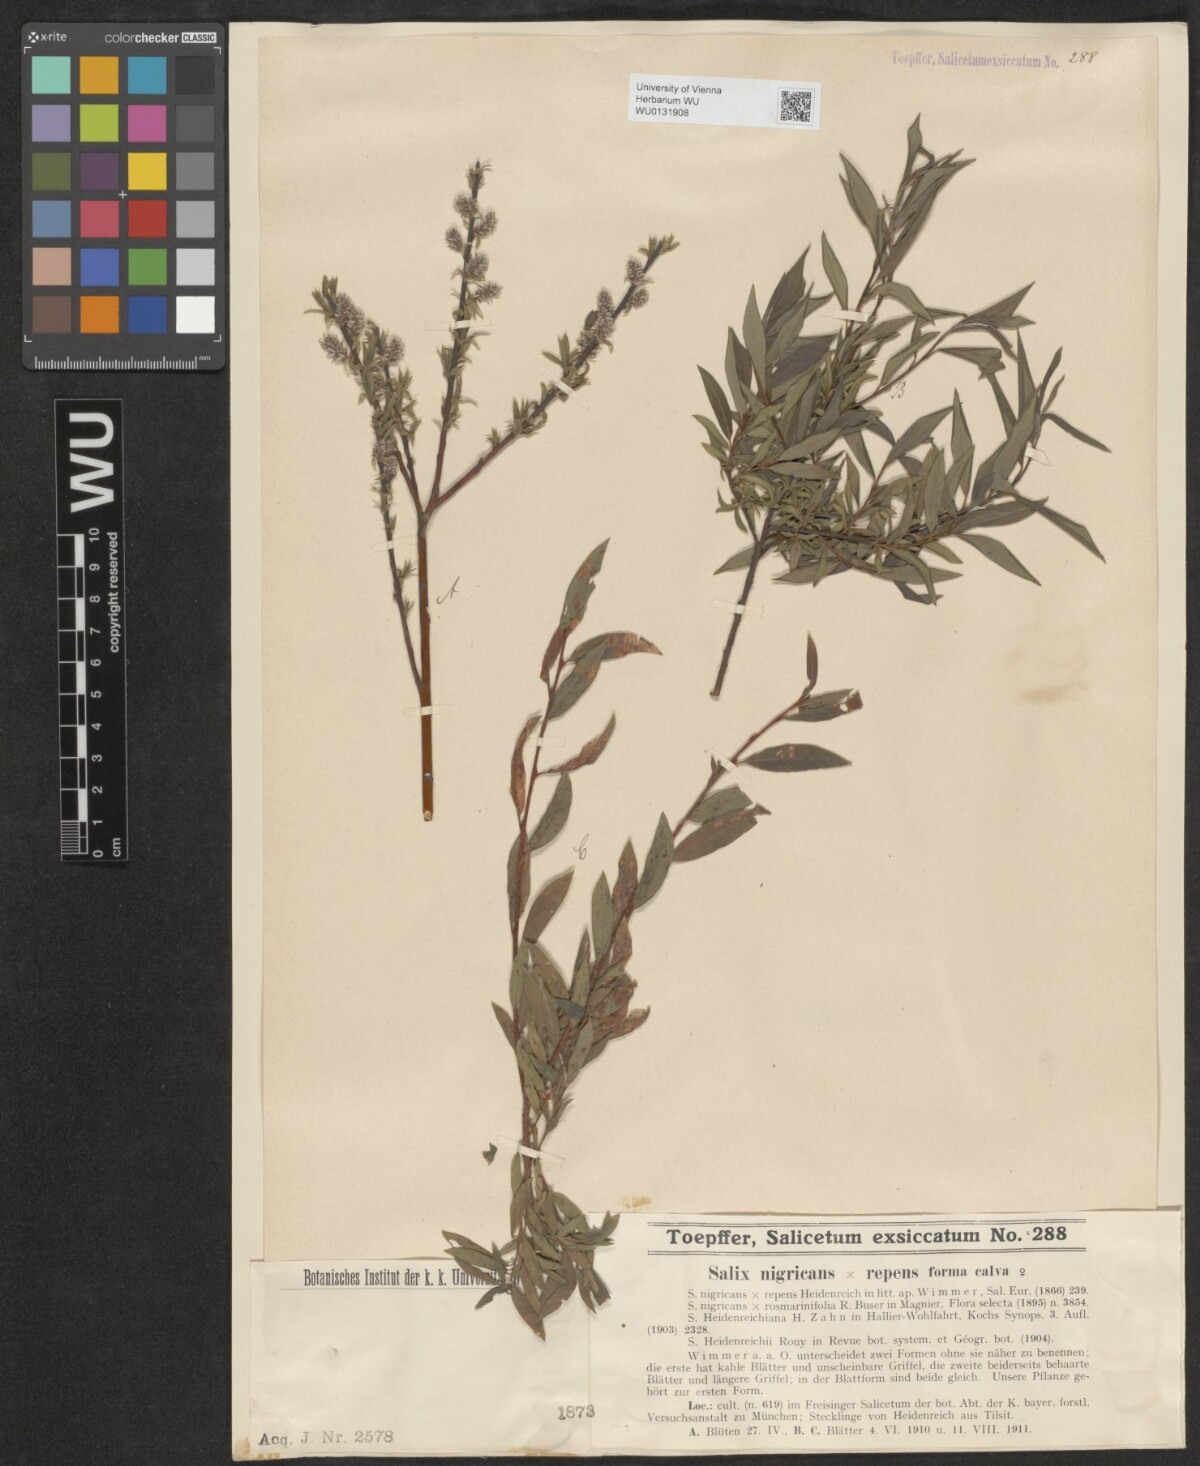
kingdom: Plantae
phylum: Tracheophyta
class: Magnoliopsida
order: Malpighiales
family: Salicaceae
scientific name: Salicaceae
